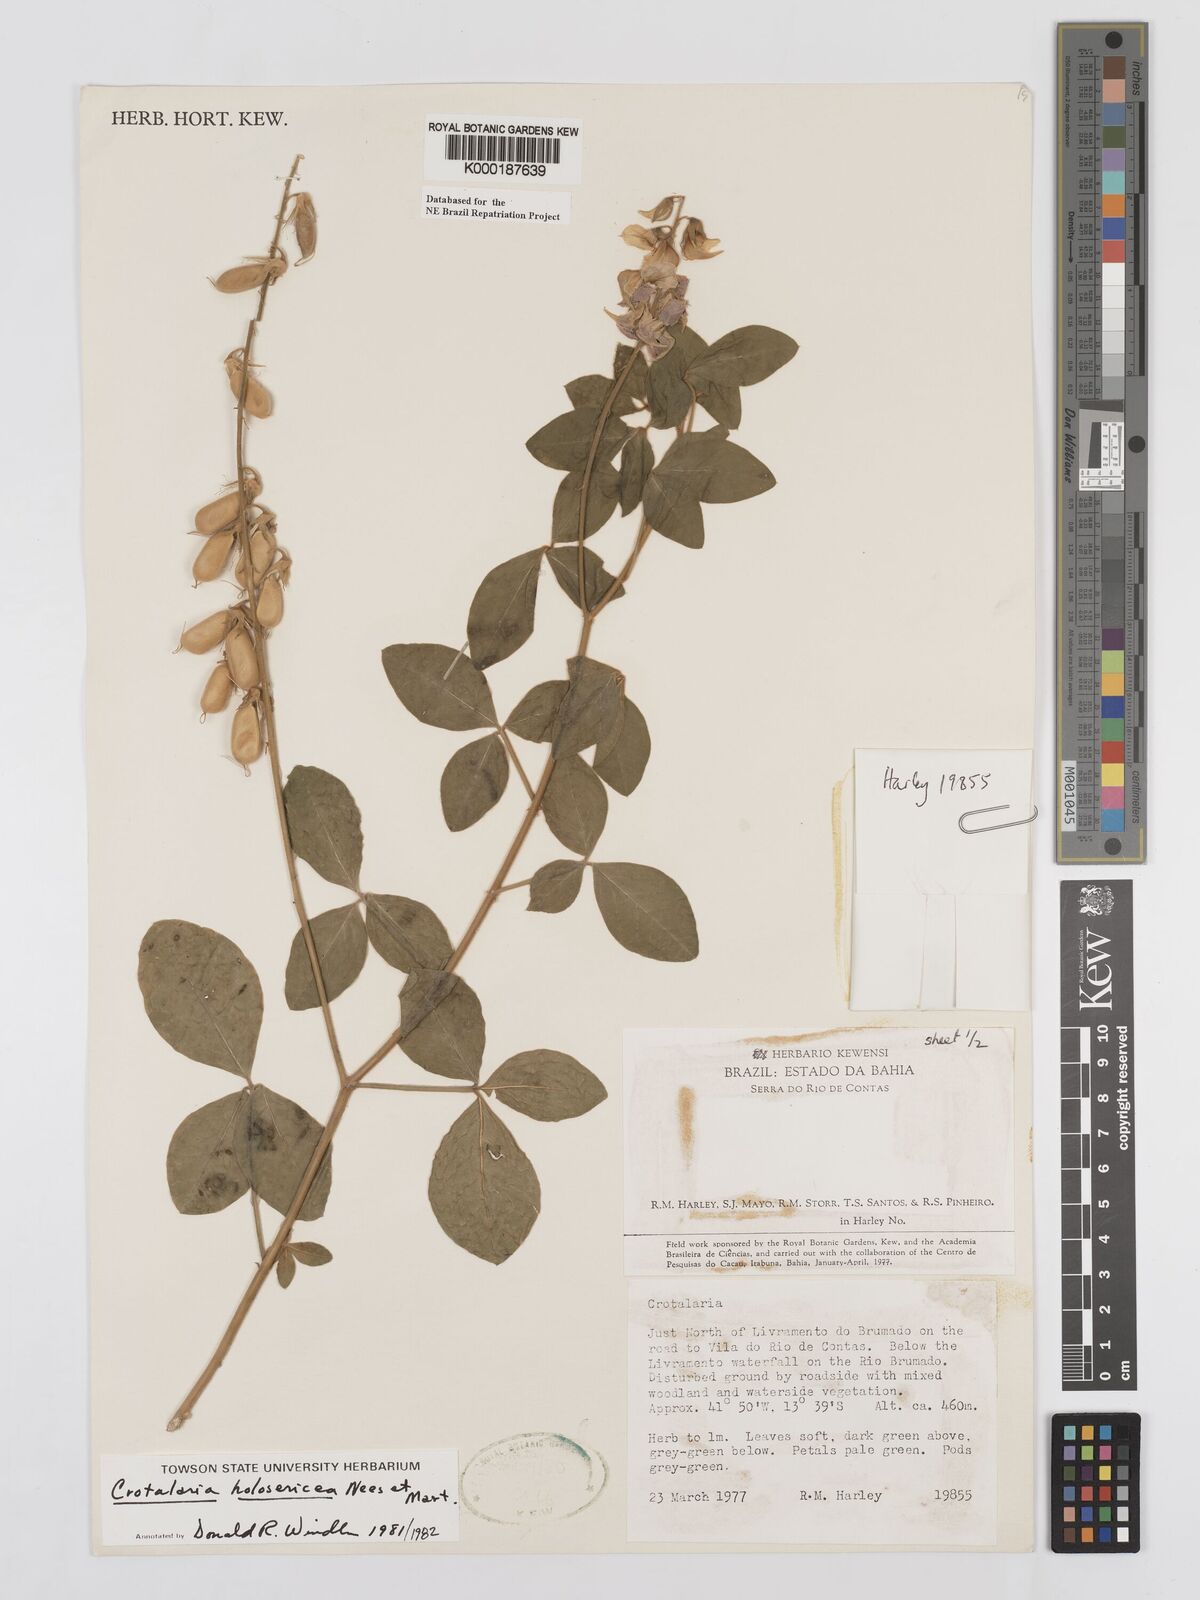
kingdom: Plantae
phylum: Tracheophyta
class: Magnoliopsida
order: Fabales
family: Fabaceae
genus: Crotalaria
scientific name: Crotalaria holosericea
